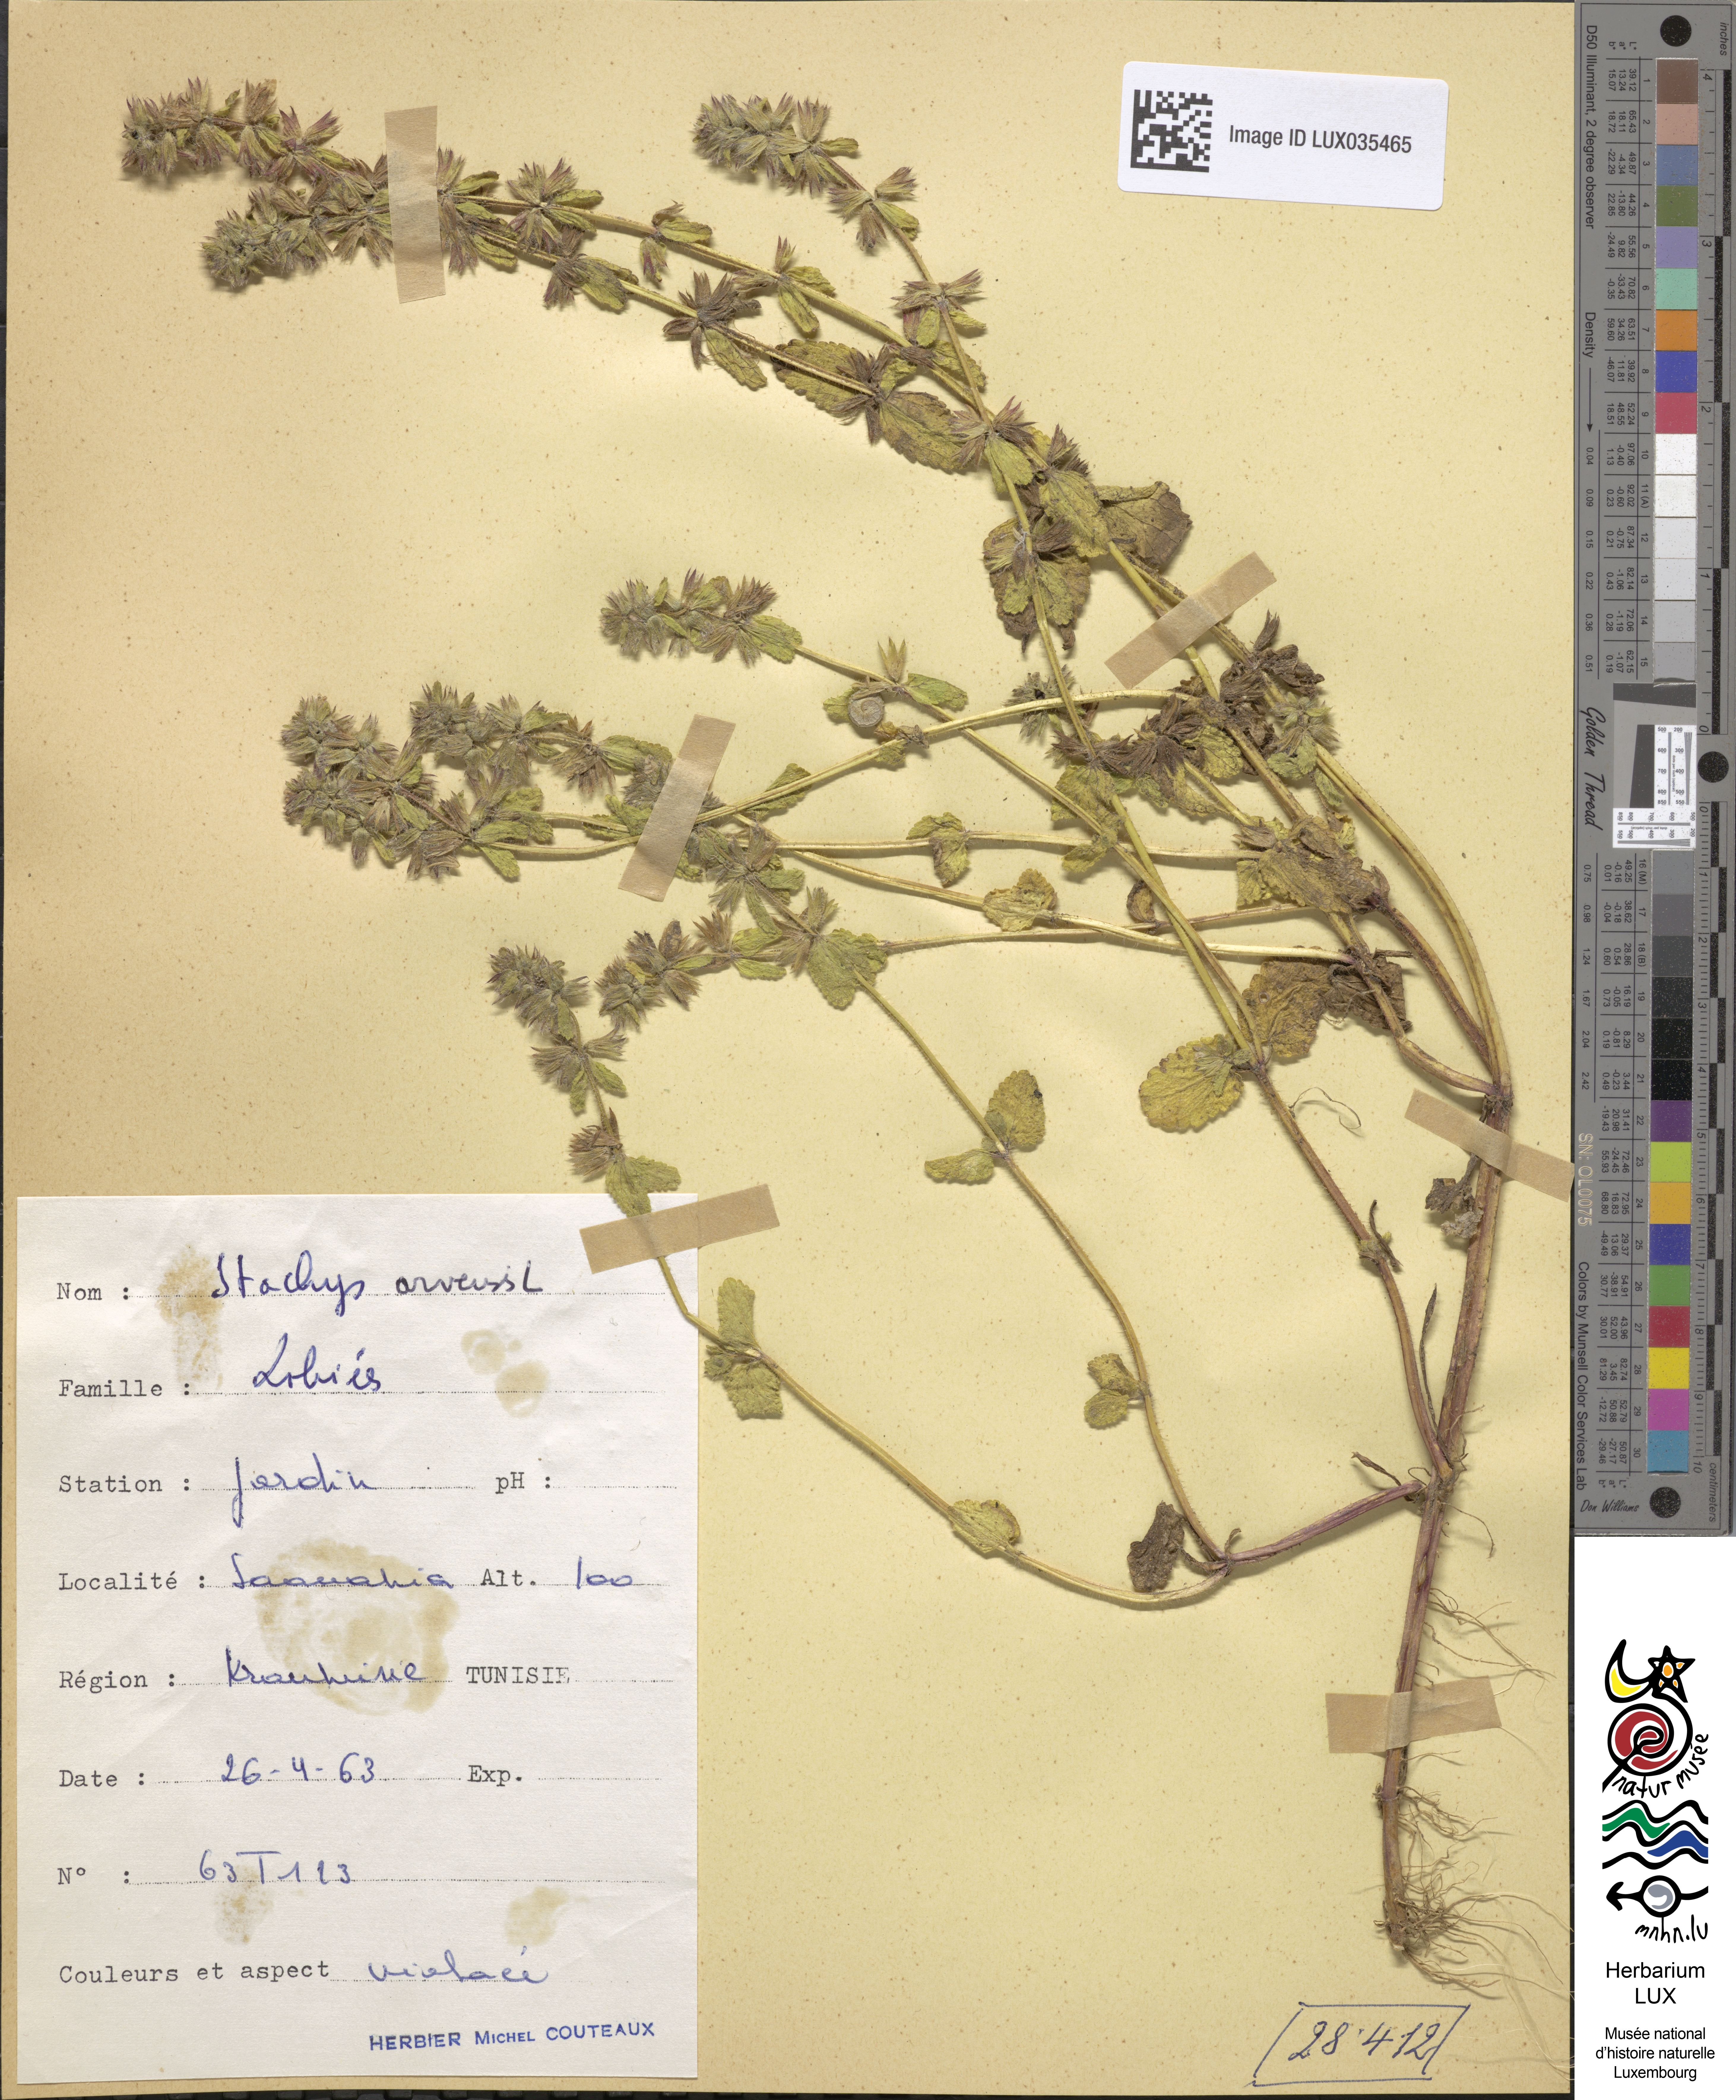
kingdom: Plantae
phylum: Tracheophyta
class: Magnoliopsida
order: Lamiales
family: Lamiaceae
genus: Stachys
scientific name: Stachys arvensis
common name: Field woundwort
